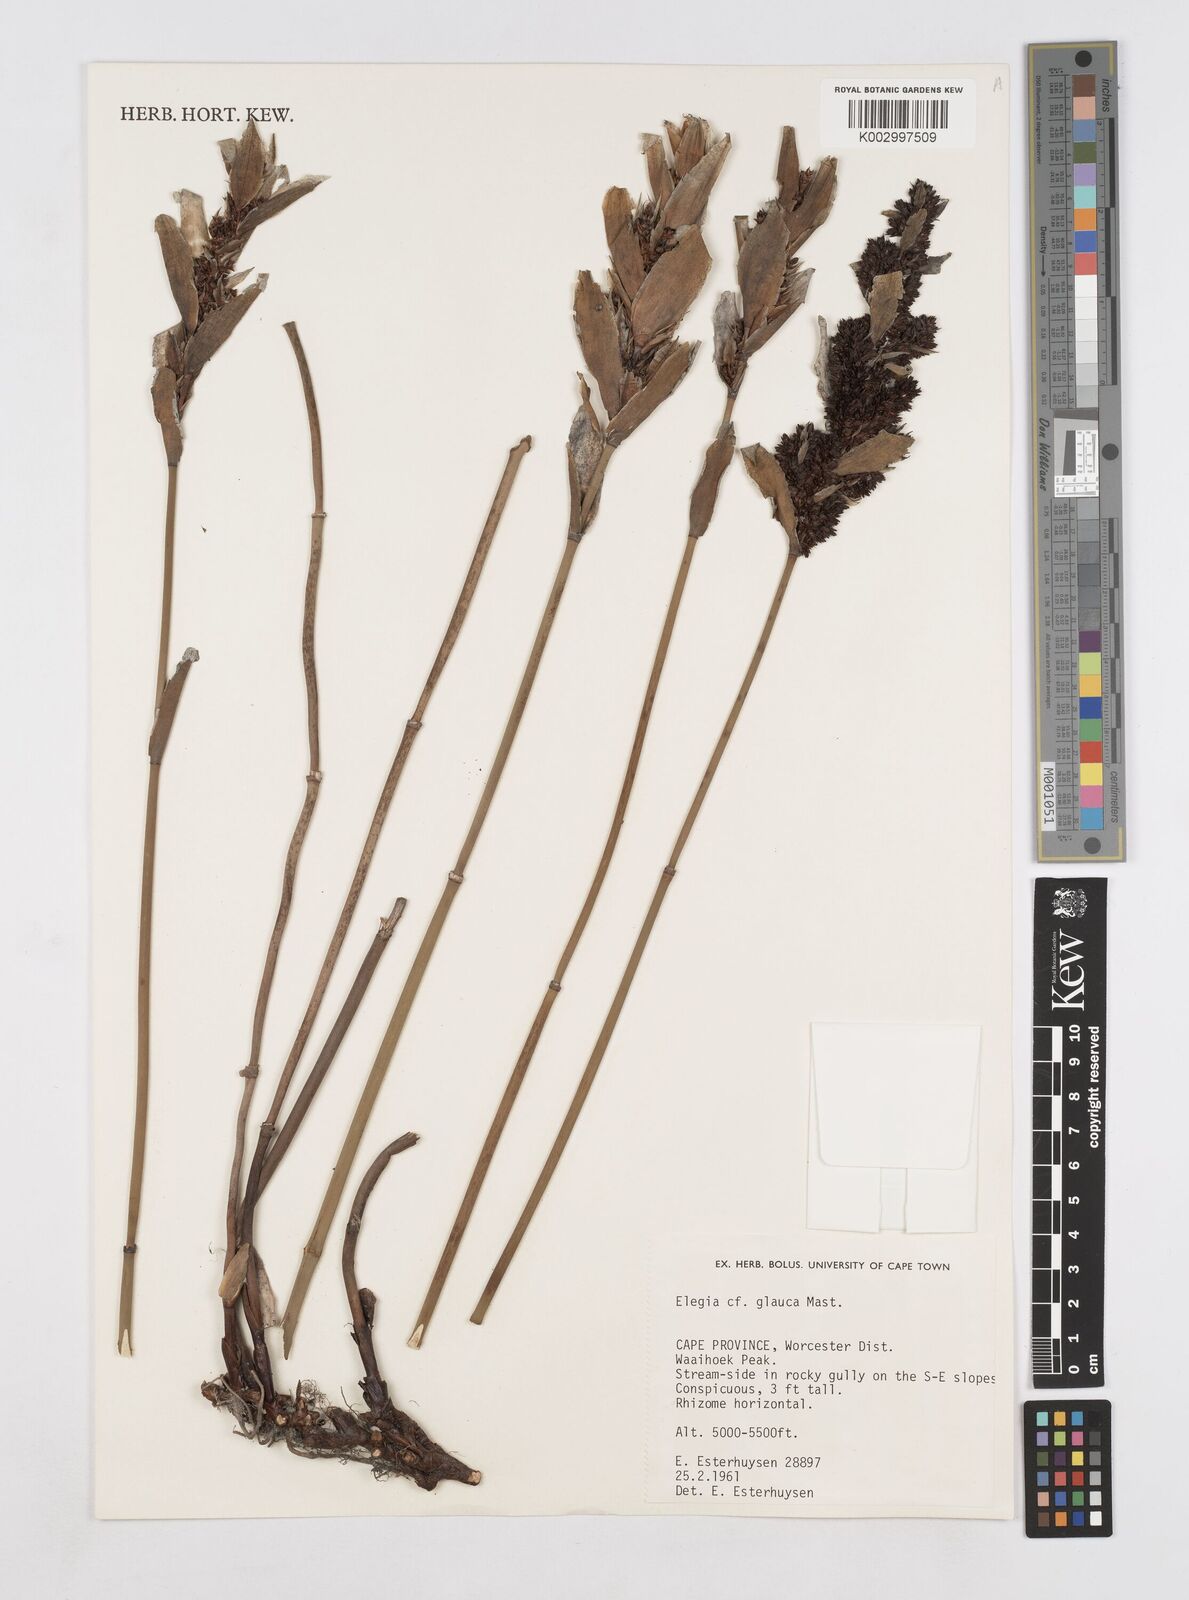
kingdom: Plantae
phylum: Tracheophyta
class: Liliopsida
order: Poales
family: Restionaceae
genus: Elegia
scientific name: Elegia asperiflora
